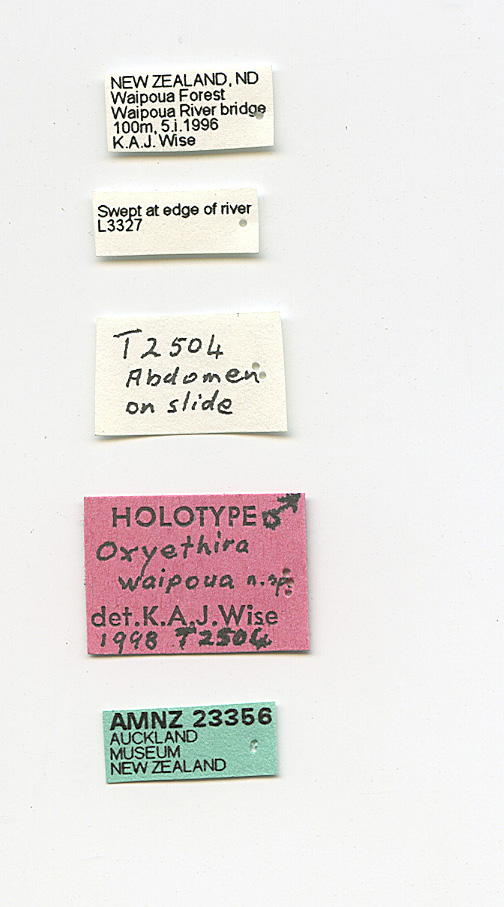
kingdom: Animalia
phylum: Arthropoda
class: Insecta
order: Trichoptera
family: Hydroptilidae
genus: Oxyethira
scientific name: Oxyethira waipoua
